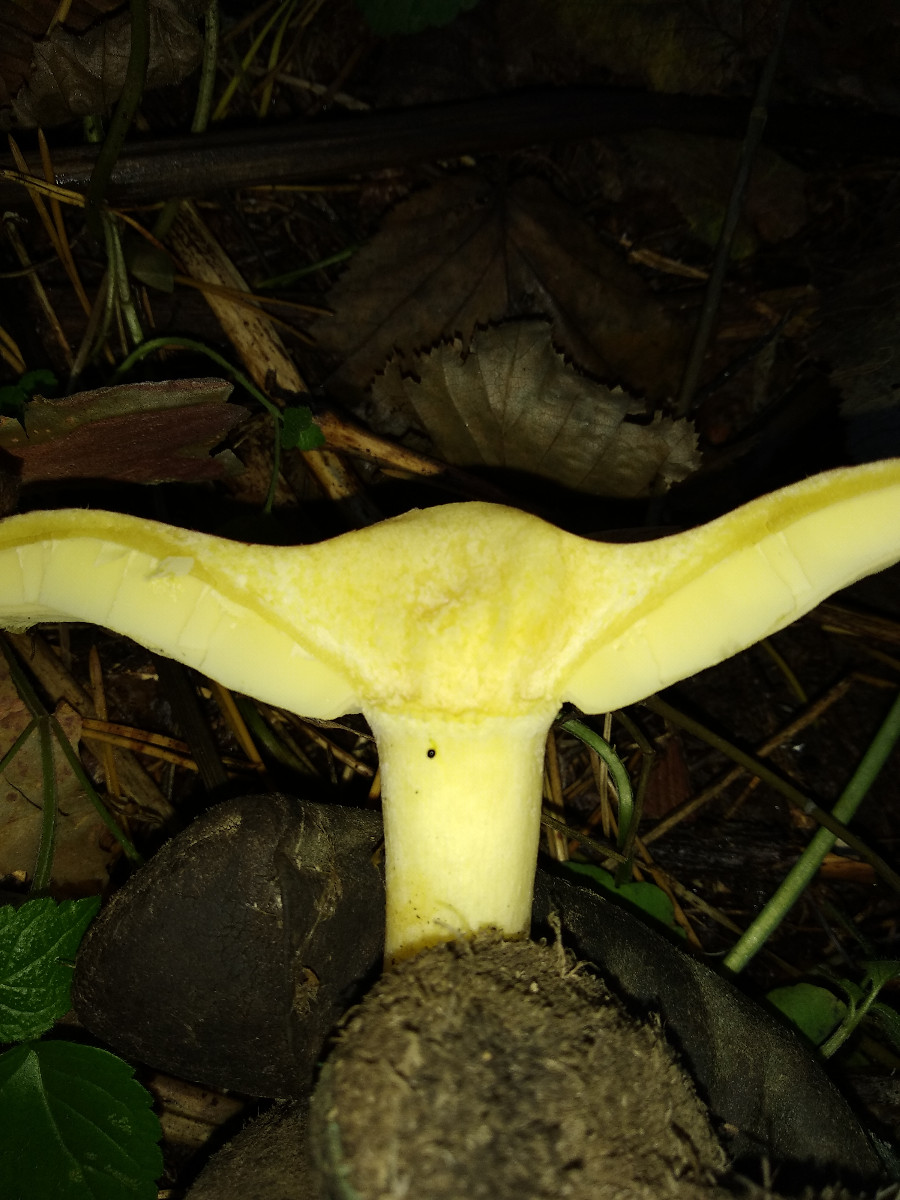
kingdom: Fungi
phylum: Basidiomycota
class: Agaricomycetes
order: Agaricales
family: Tricholomataceae
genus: Tricholomopsis
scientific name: Tricholomopsis rutilans
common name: purpur-væbnerhat
